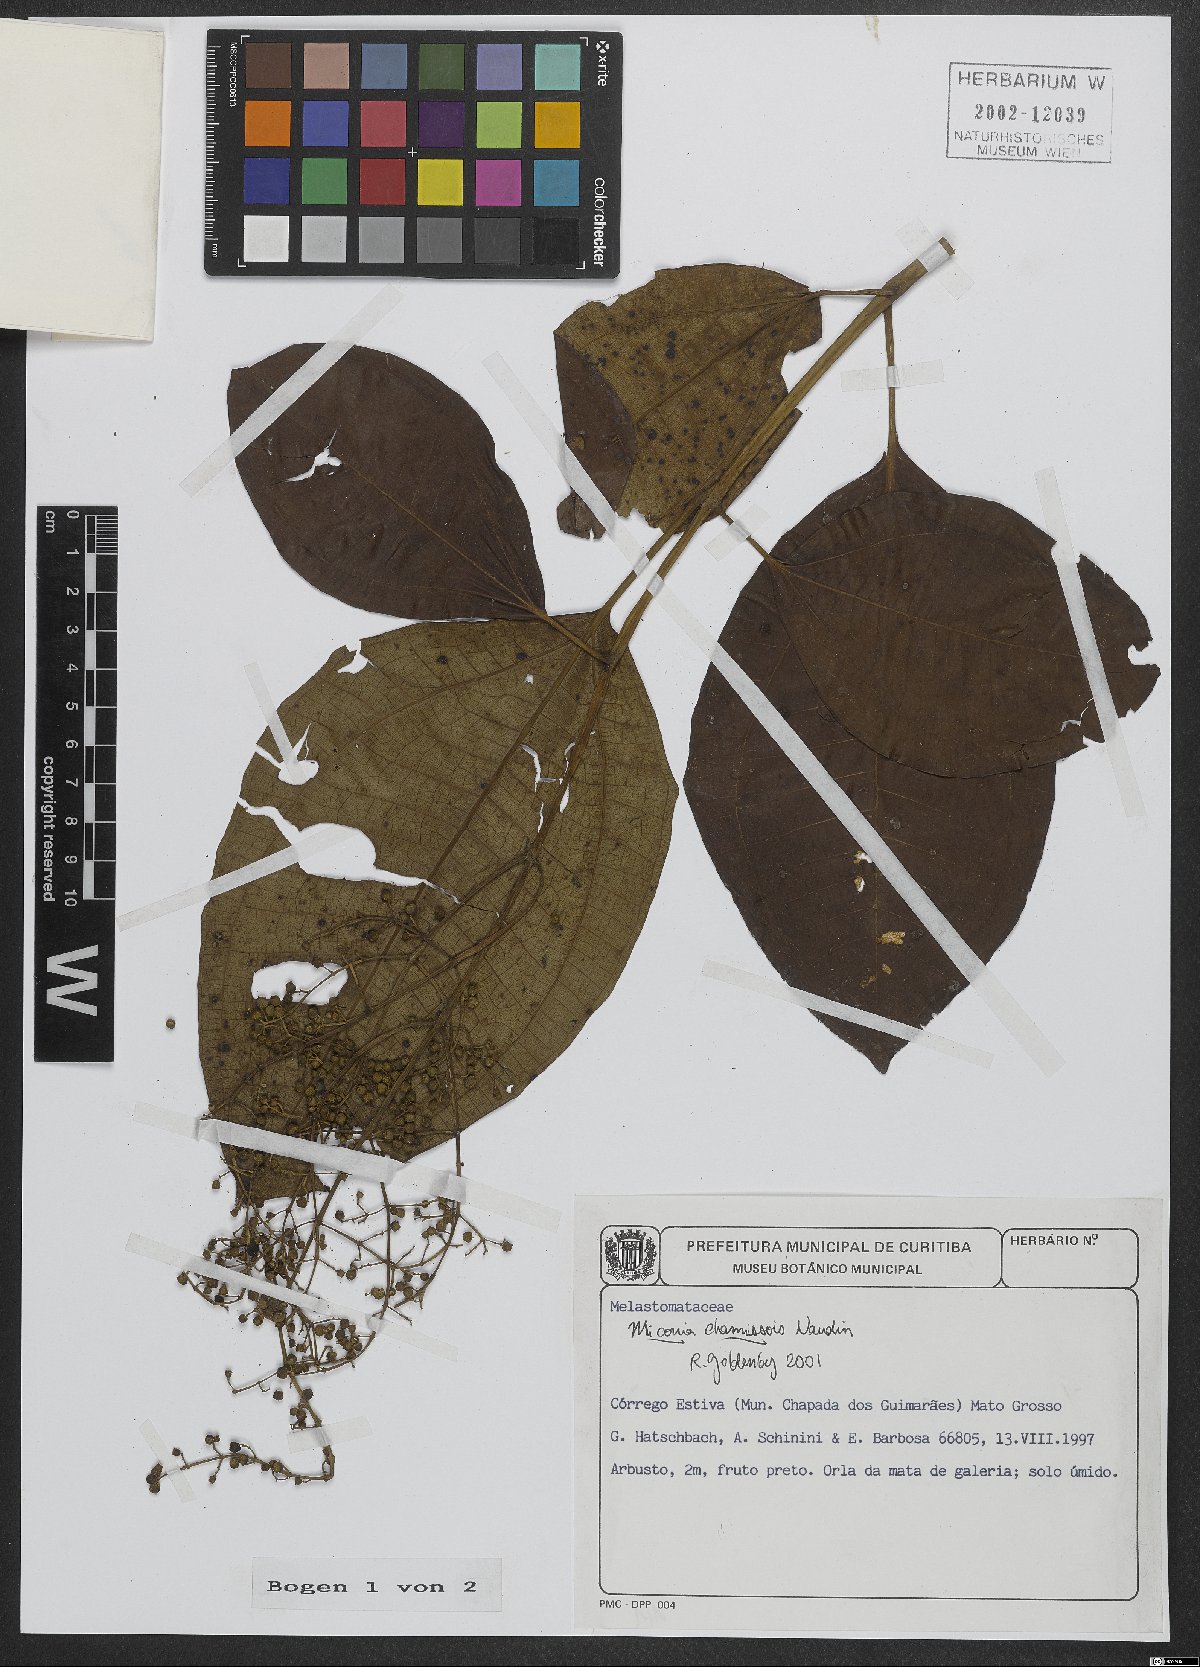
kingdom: Plantae
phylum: Tracheophyta
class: Magnoliopsida
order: Myrtales
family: Melastomataceae
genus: Miconia
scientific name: Miconia chamissois
